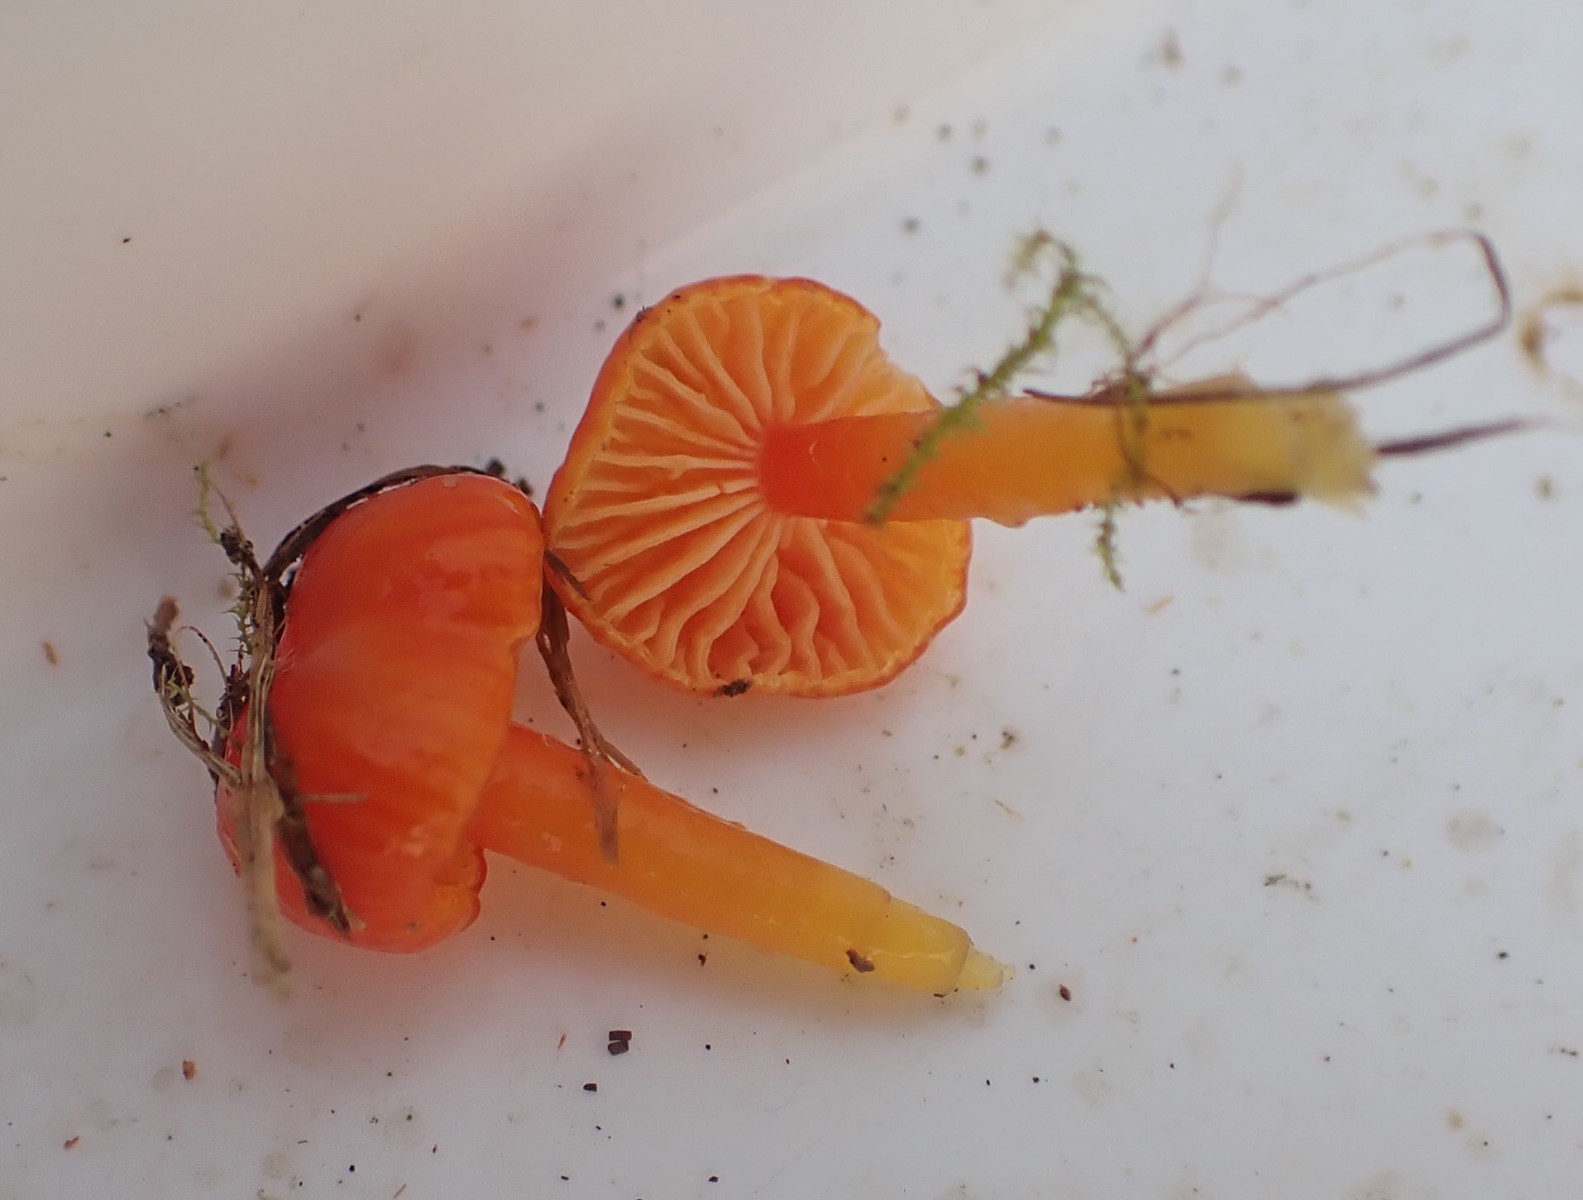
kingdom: Fungi
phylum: Basidiomycota
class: Agaricomycetes
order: Agaricales
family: Hygrophoraceae
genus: Hygrocybe
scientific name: Hygrocybe insipida
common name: liden vokshat
